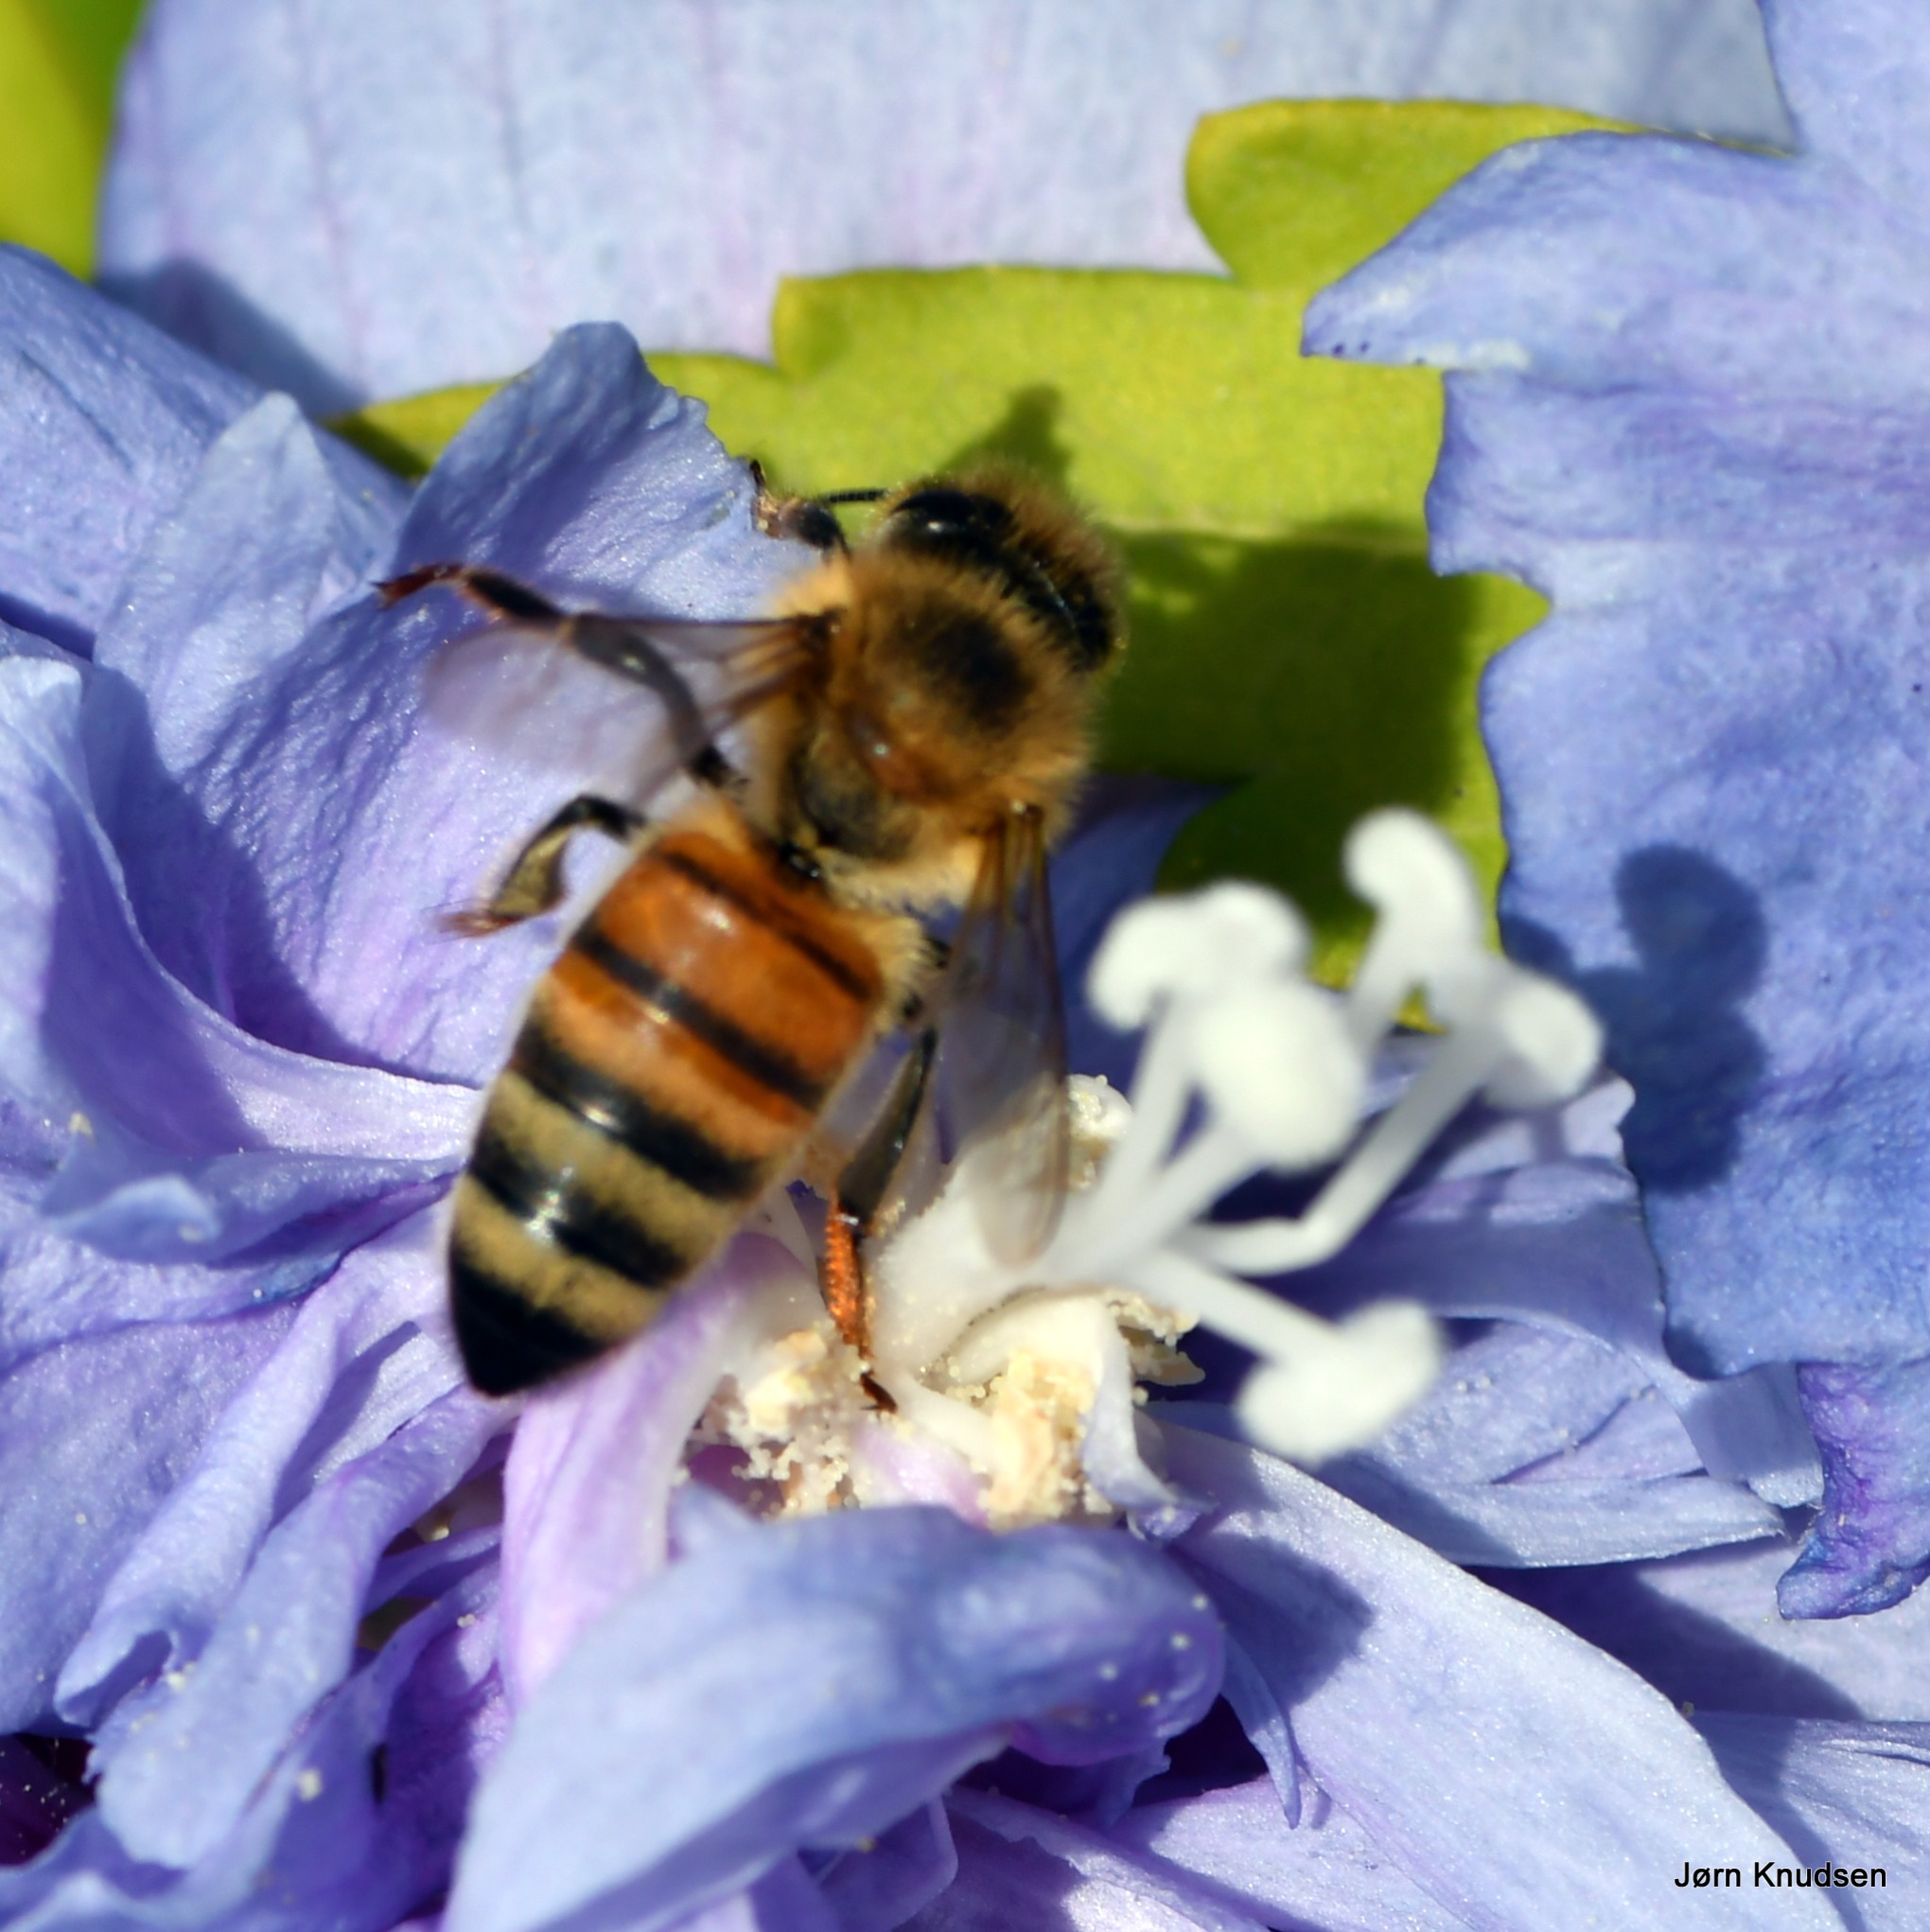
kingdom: Animalia
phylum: Arthropoda
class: Insecta
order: Hymenoptera
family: Apidae
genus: Apis
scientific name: Apis mellifera
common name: Honningbi
